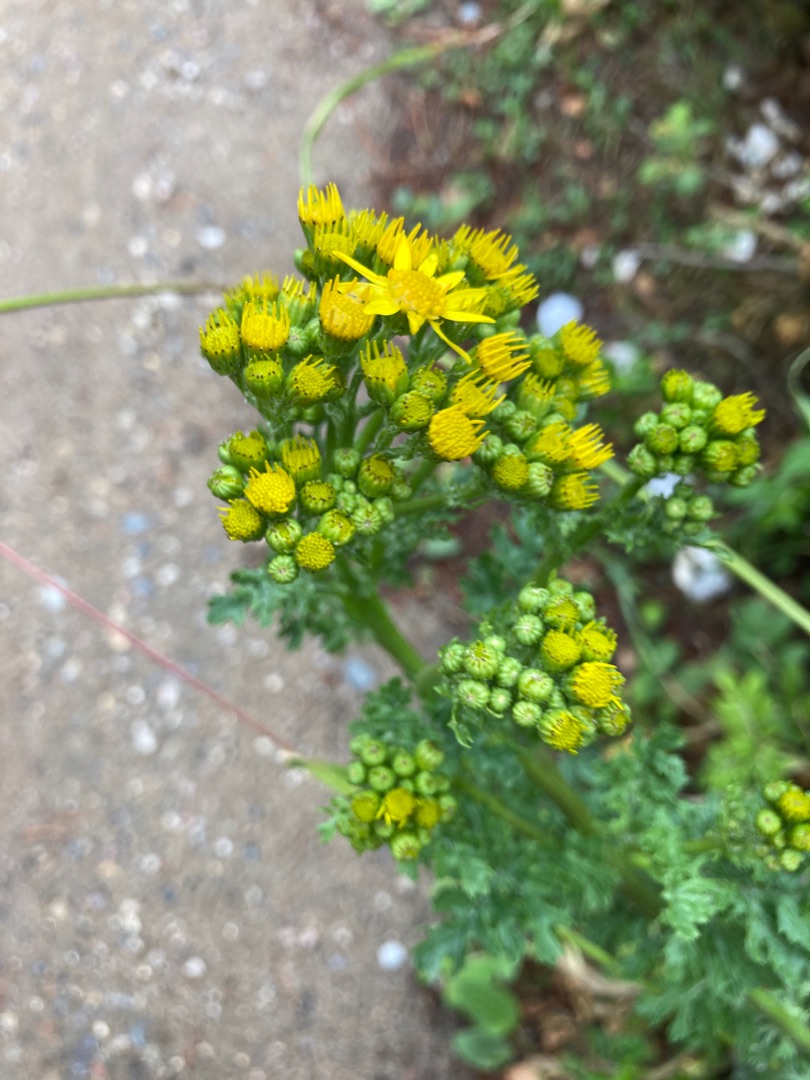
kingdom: Plantae
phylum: Tracheophyta
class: Magnoliopsida
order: Asterales
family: Asteraceae
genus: Jacobaea
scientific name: Jacobaea vulgaris
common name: Eng-brandbæger
